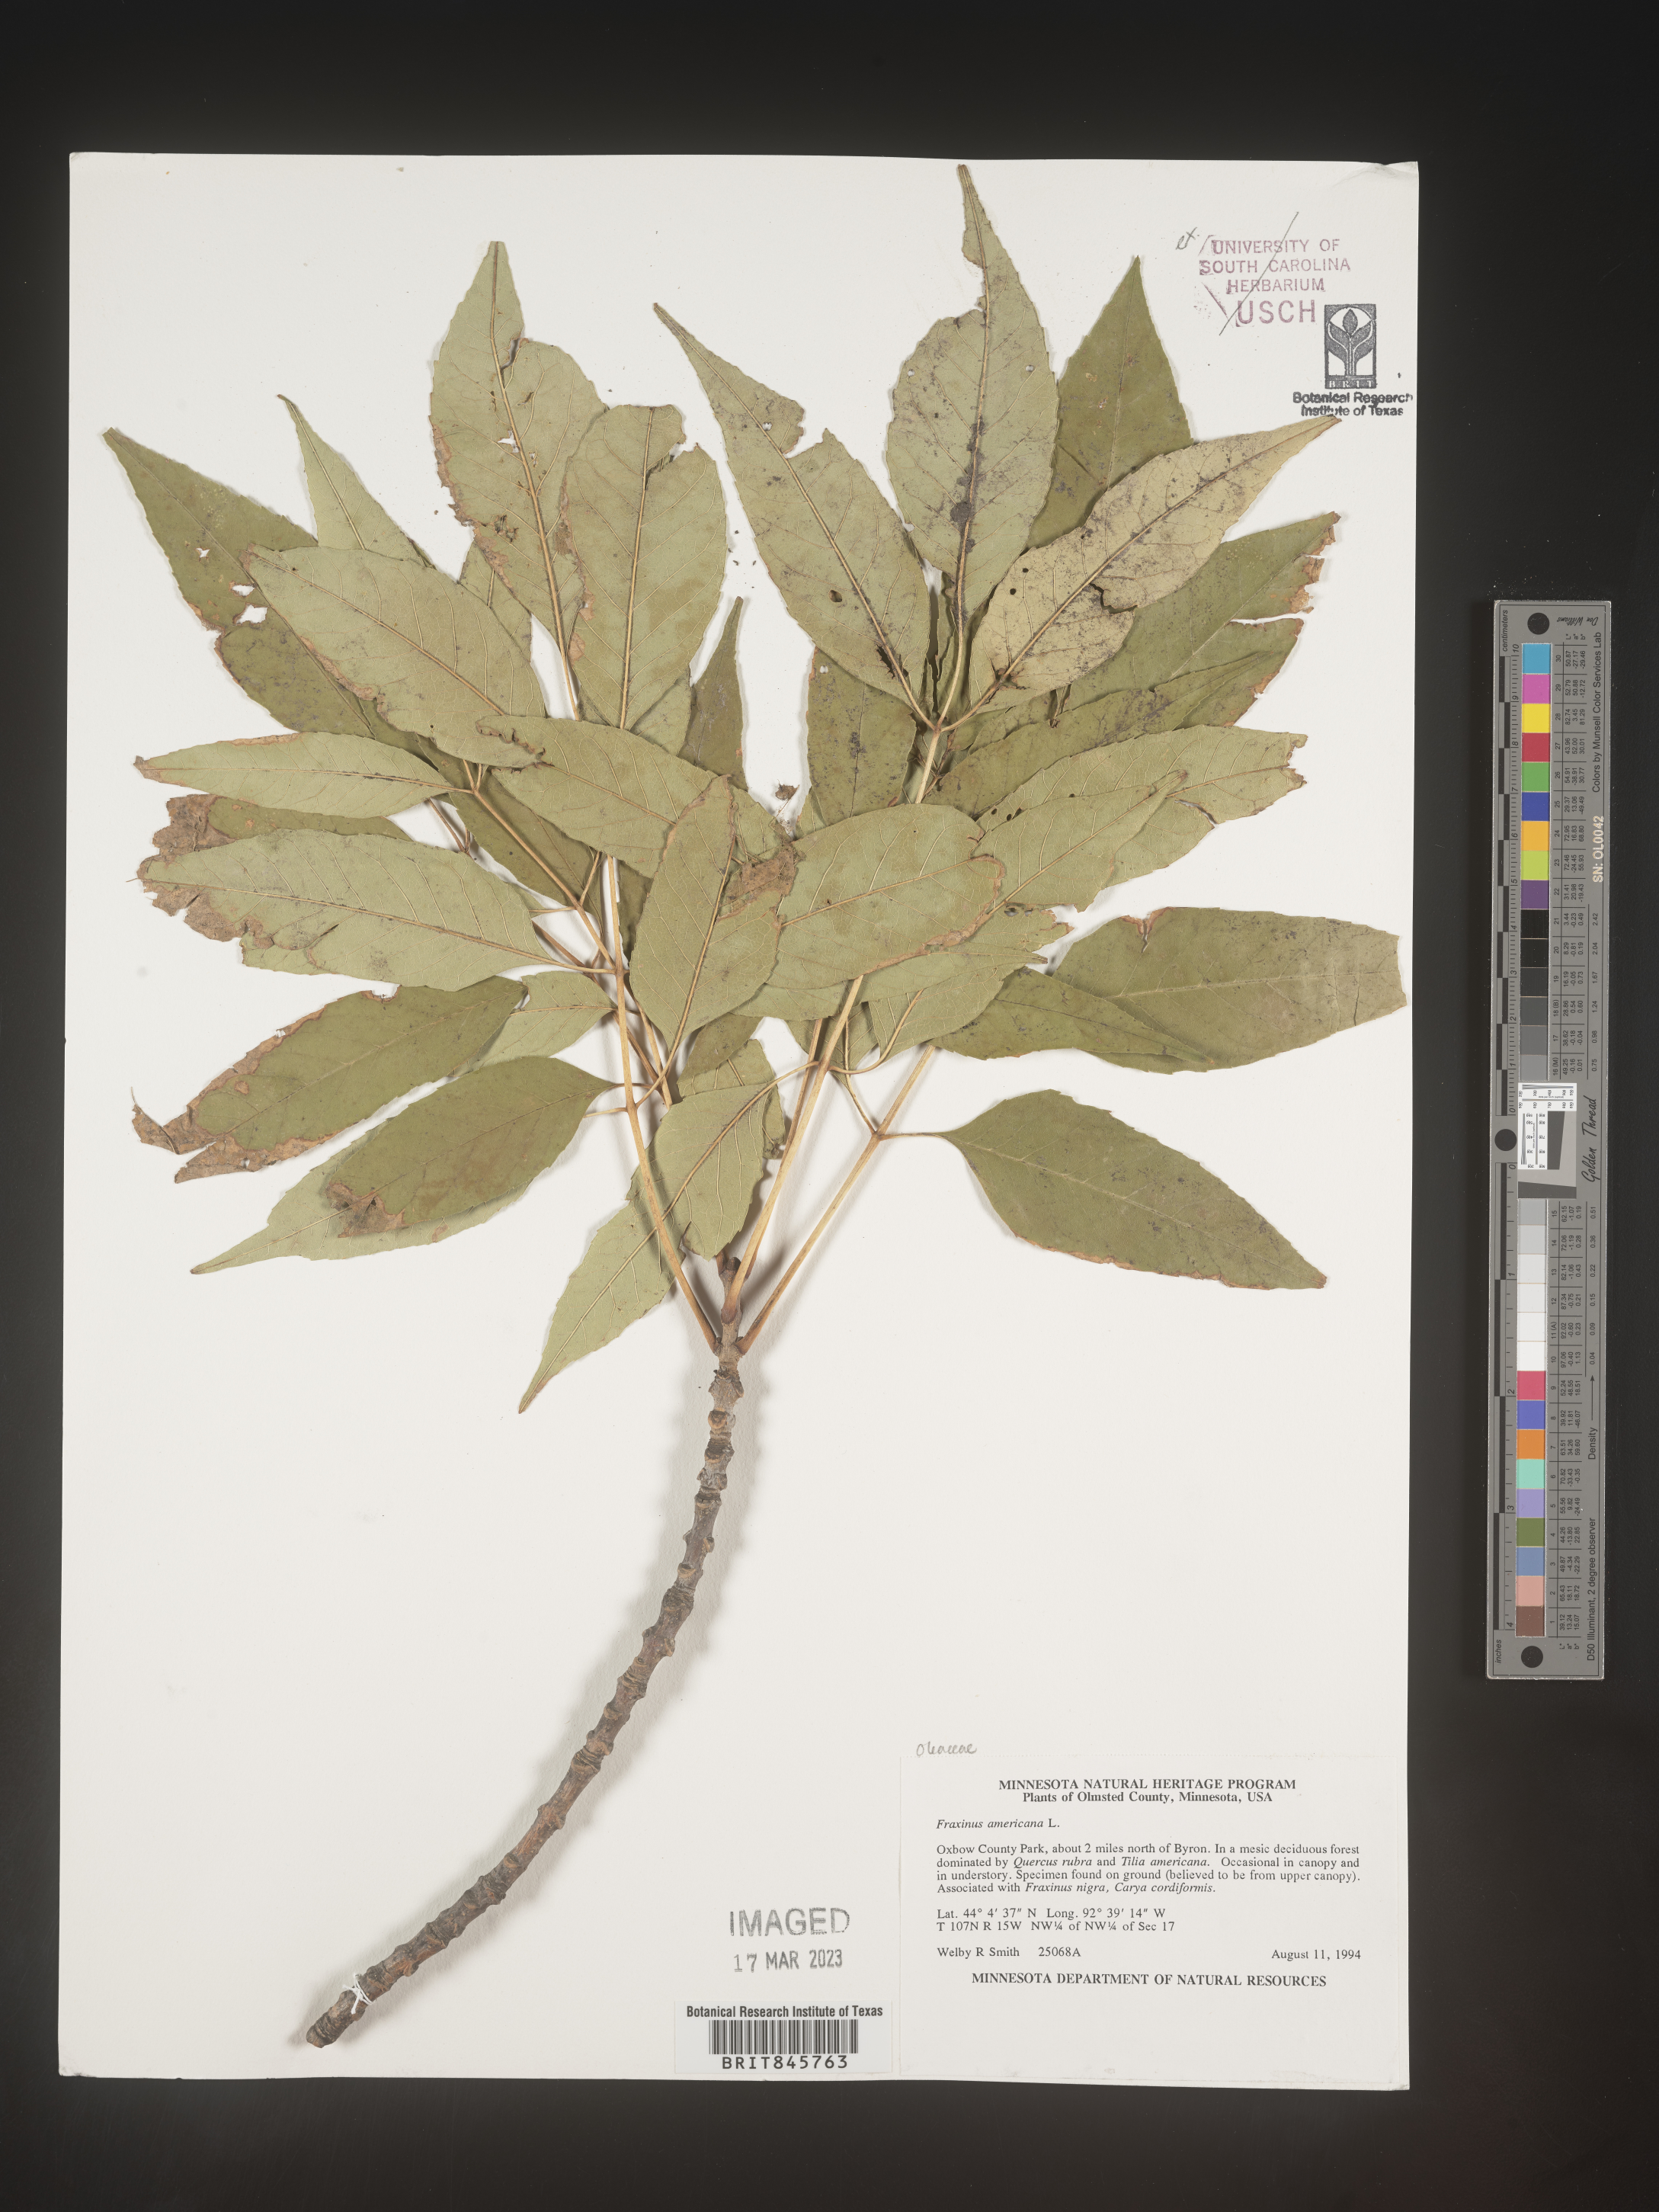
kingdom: Plantae
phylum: Tracheophyta
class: Magnoliopsida
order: Lamiales
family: Oleaceae
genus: Fraxinus
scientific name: Fraxinus americana
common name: White ash
